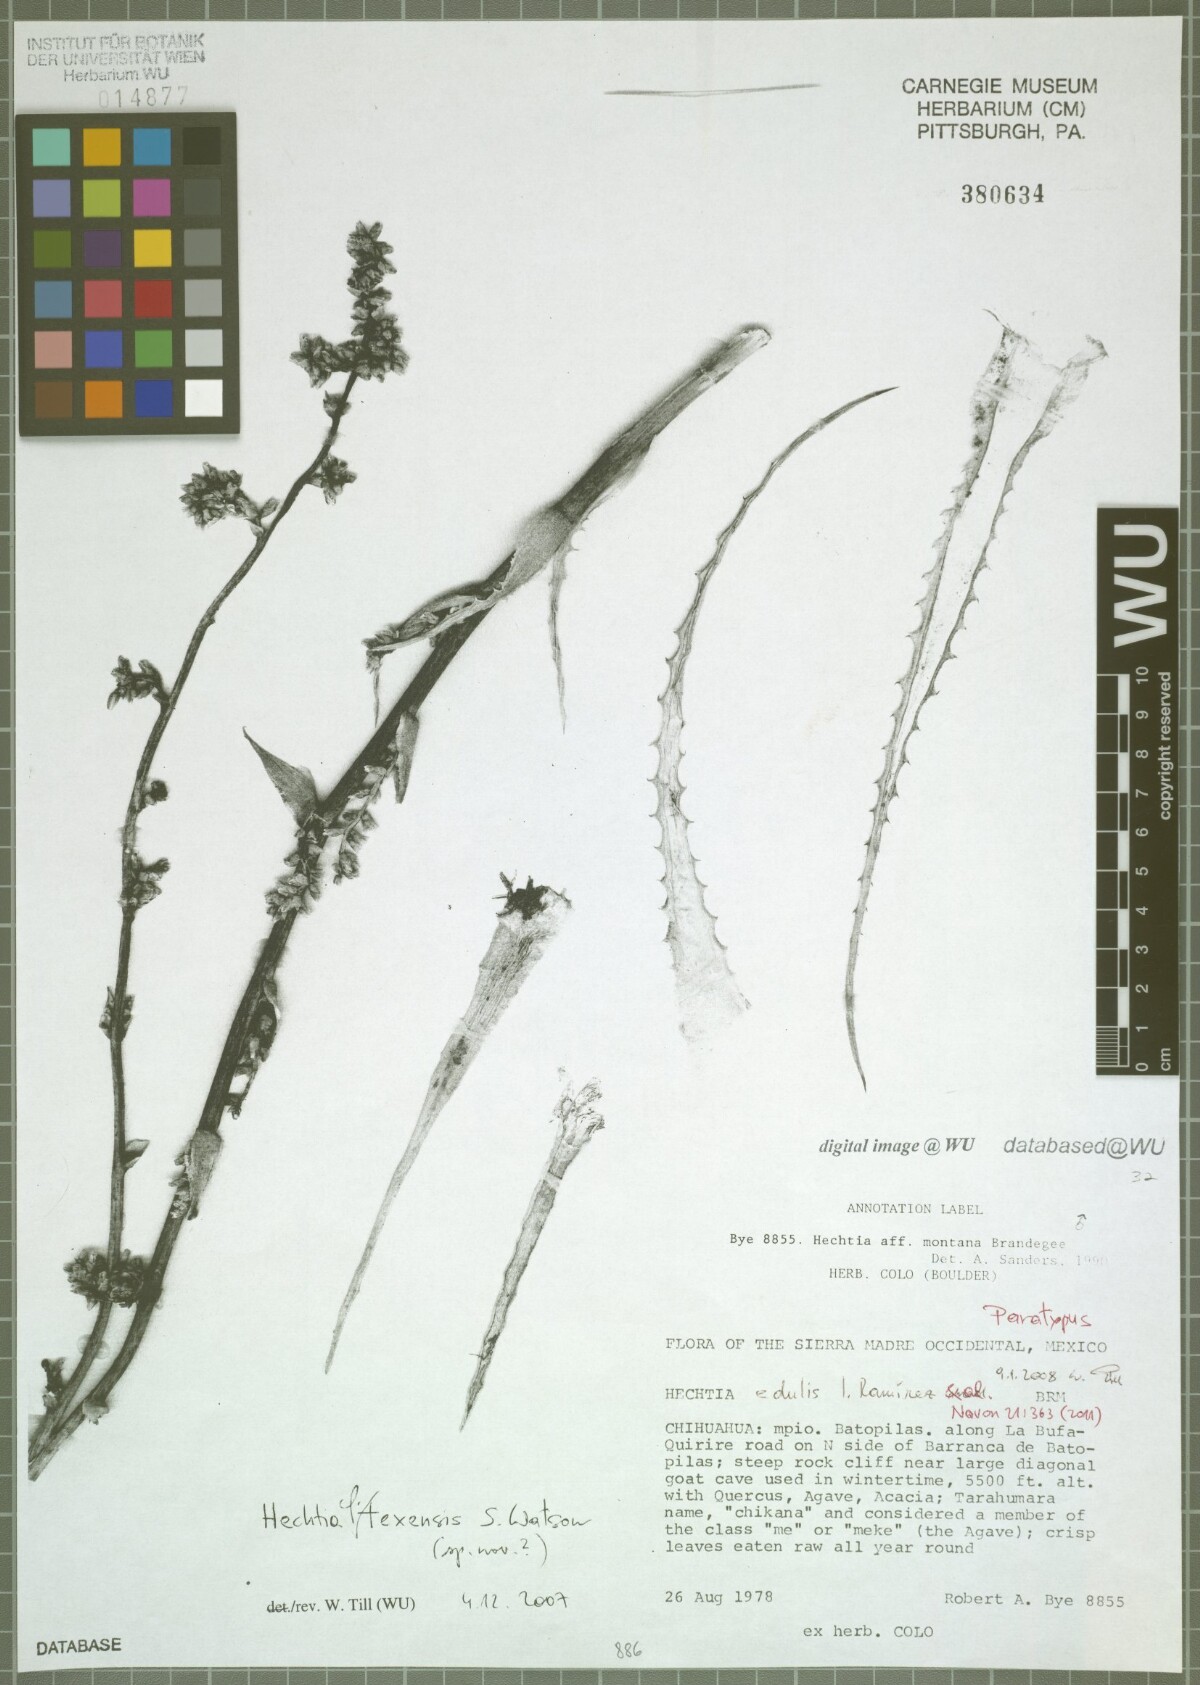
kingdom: Plantae
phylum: Tracheophyta
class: Liliopsida
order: Poales
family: Bromeliaceae
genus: Hechtia
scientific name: Hechtia edulis
